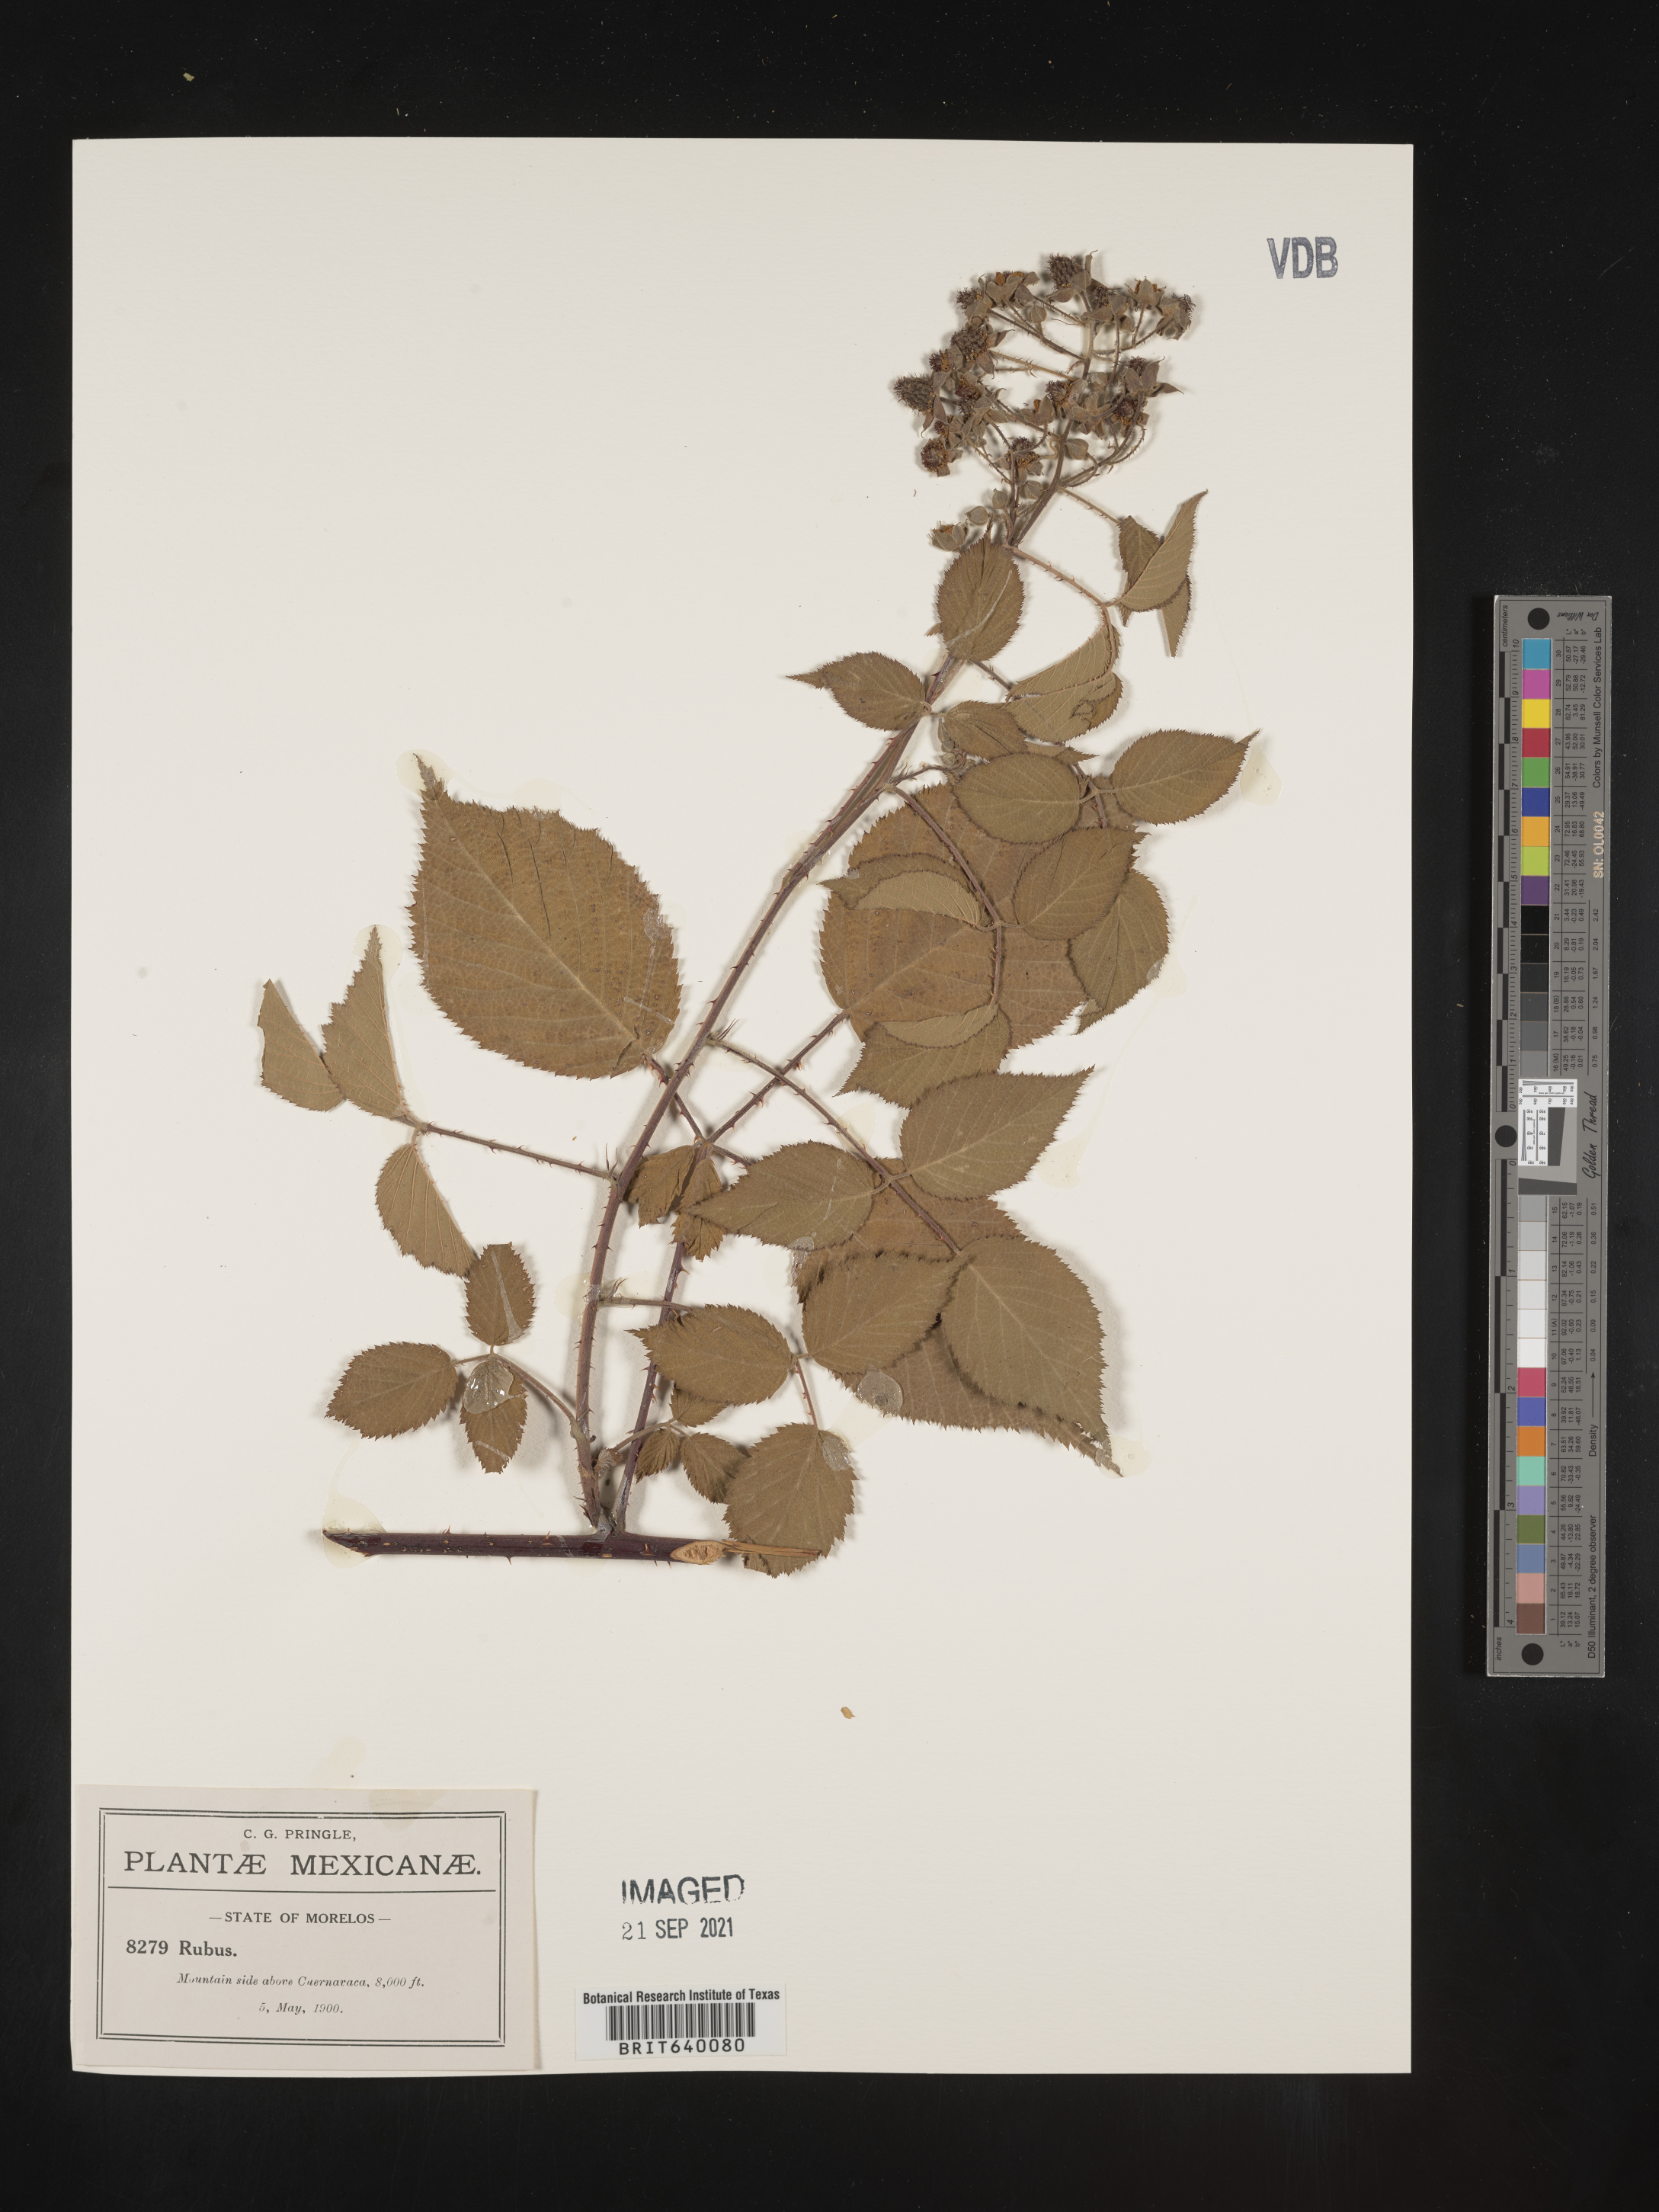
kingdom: Plantae
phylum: Tracheophyta
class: Magnoliopsida
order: Rosales
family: Rosaceae
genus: Rubus
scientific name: Rubus
